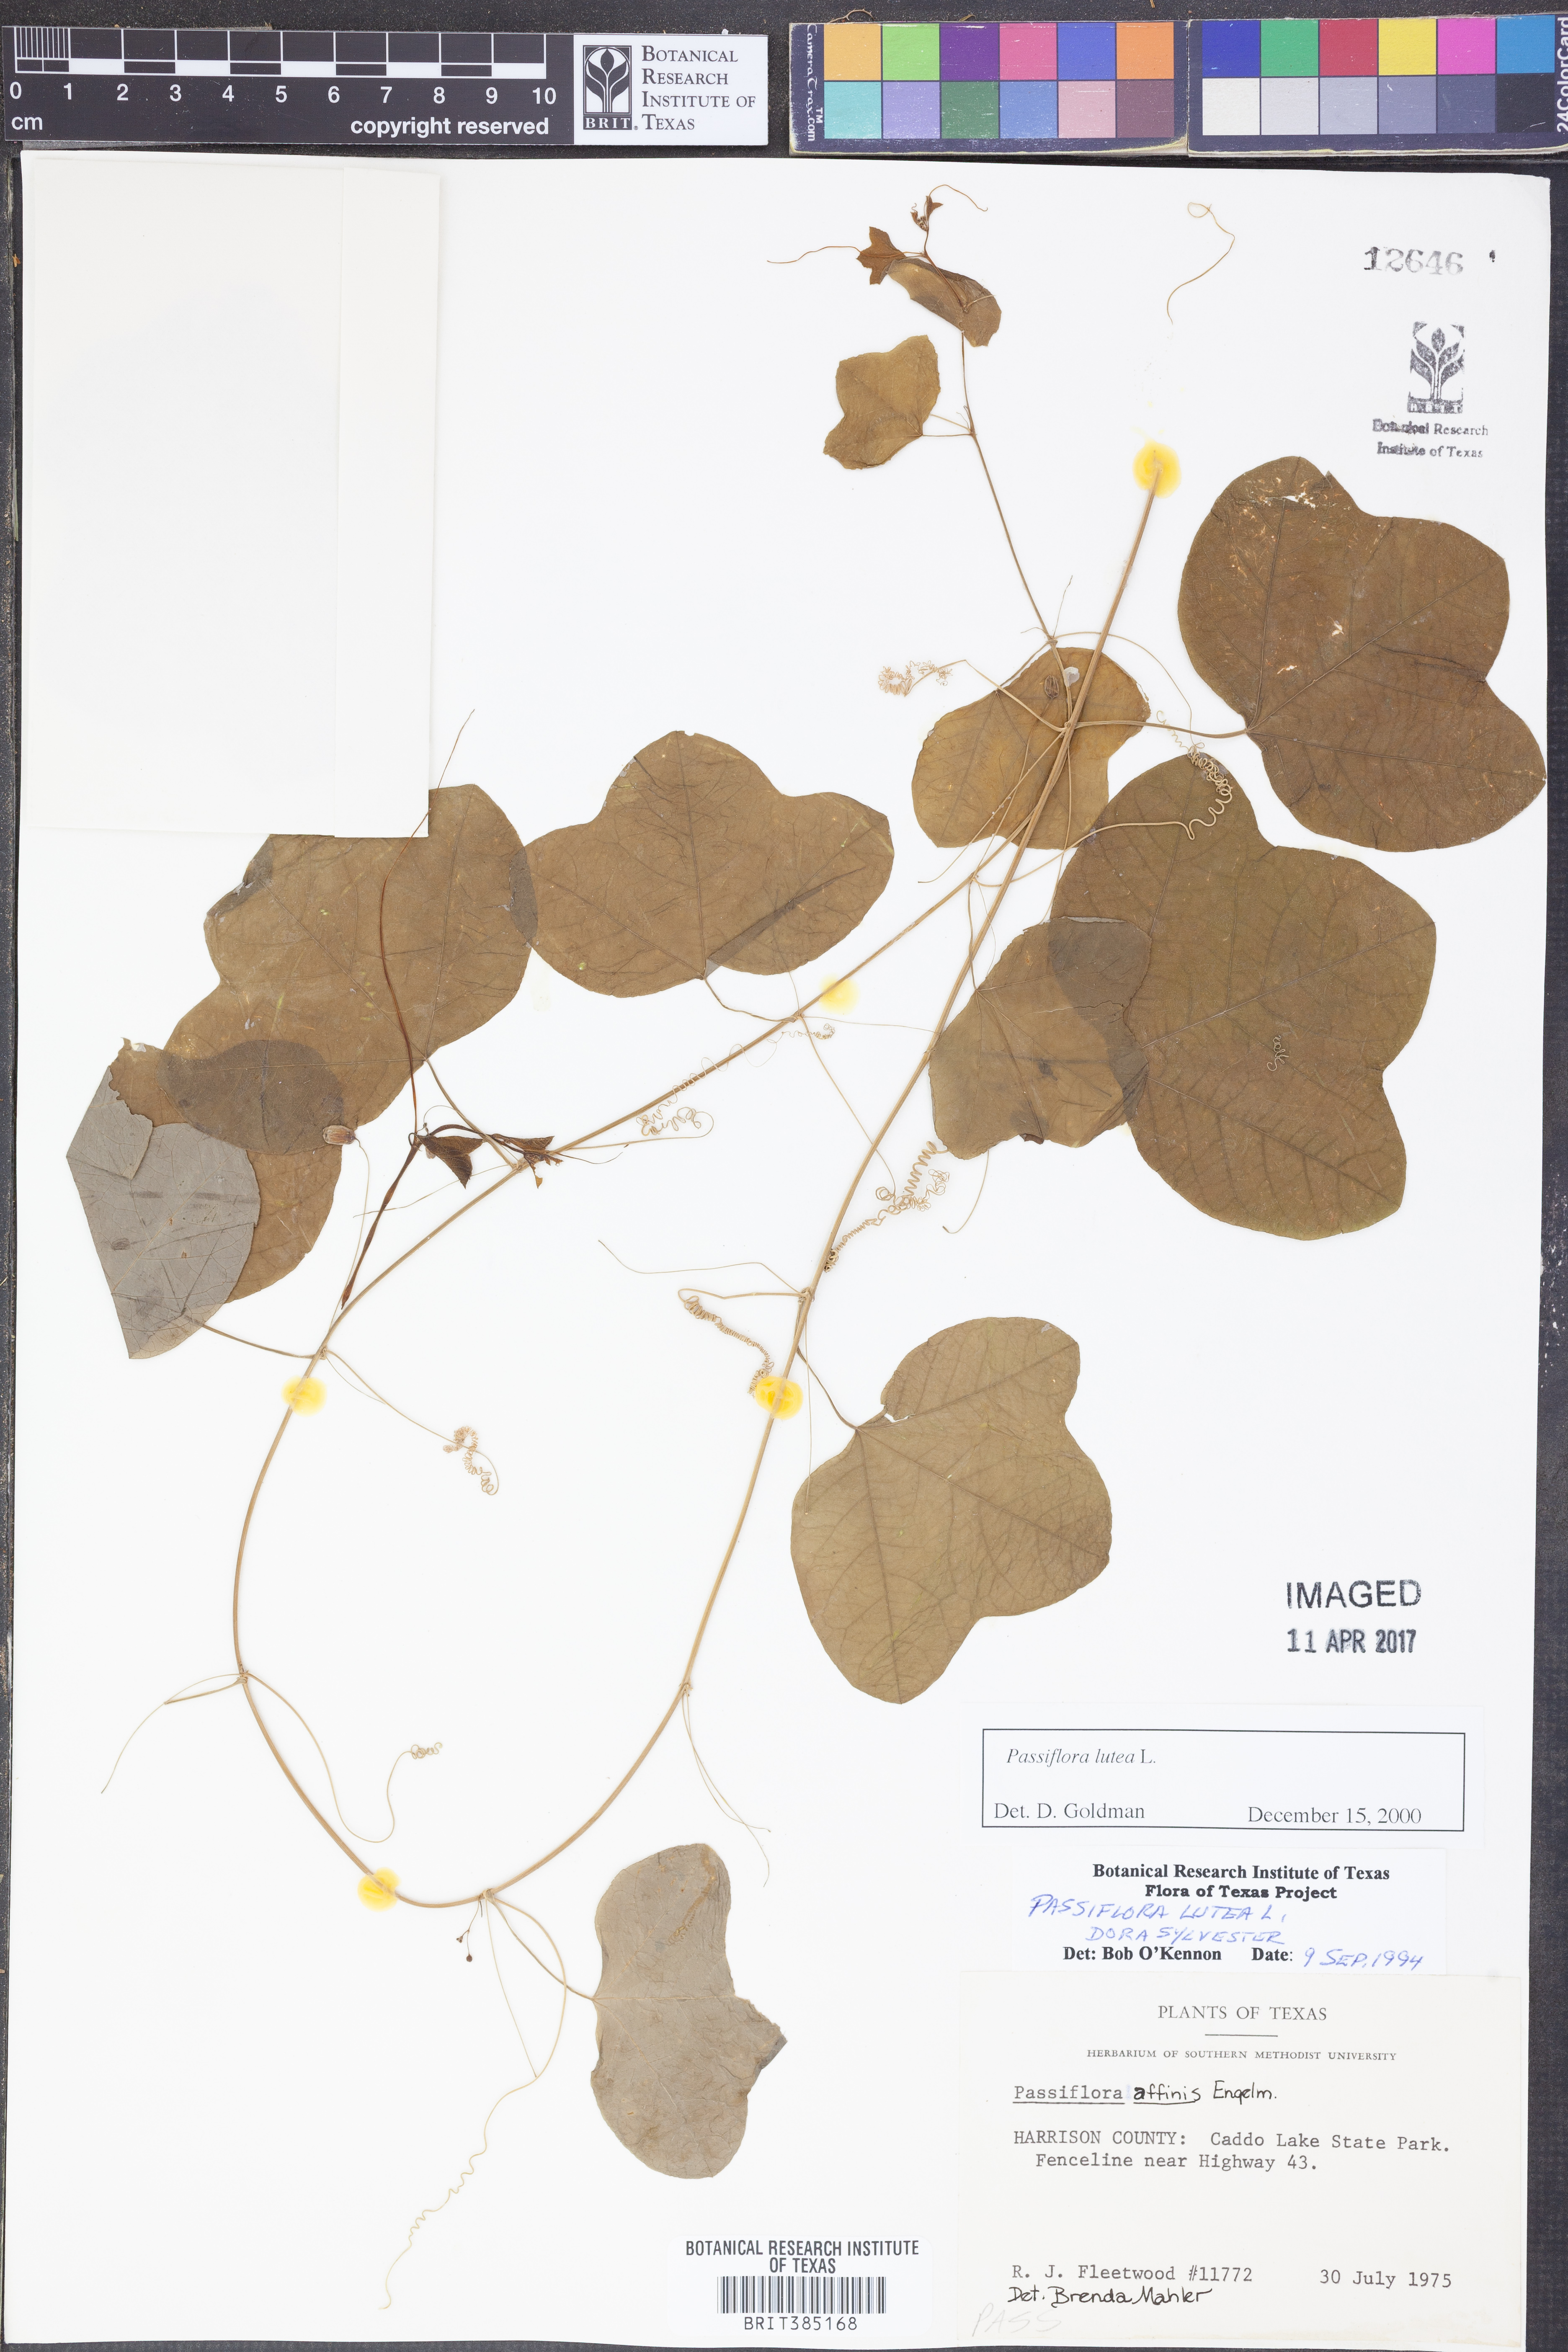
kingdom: Plantae
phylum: Tracheophyta
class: Magnoliopsida
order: Malpighiales
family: Passifloraceae
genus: Passiflora
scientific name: Passiflora lutea
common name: Yellow passionflower
